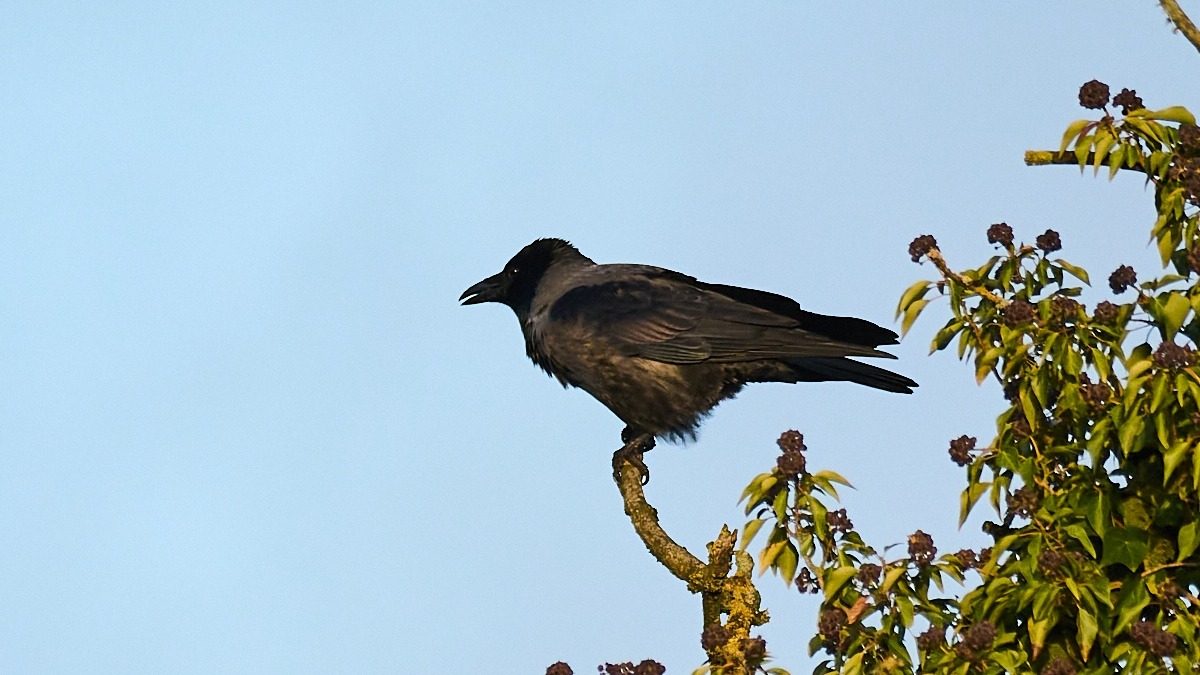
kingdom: Animalia
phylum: Chordata
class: Aves
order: Passeriformes
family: Corvidae
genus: Corvus
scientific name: Corvus cornix
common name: Gråkrage
